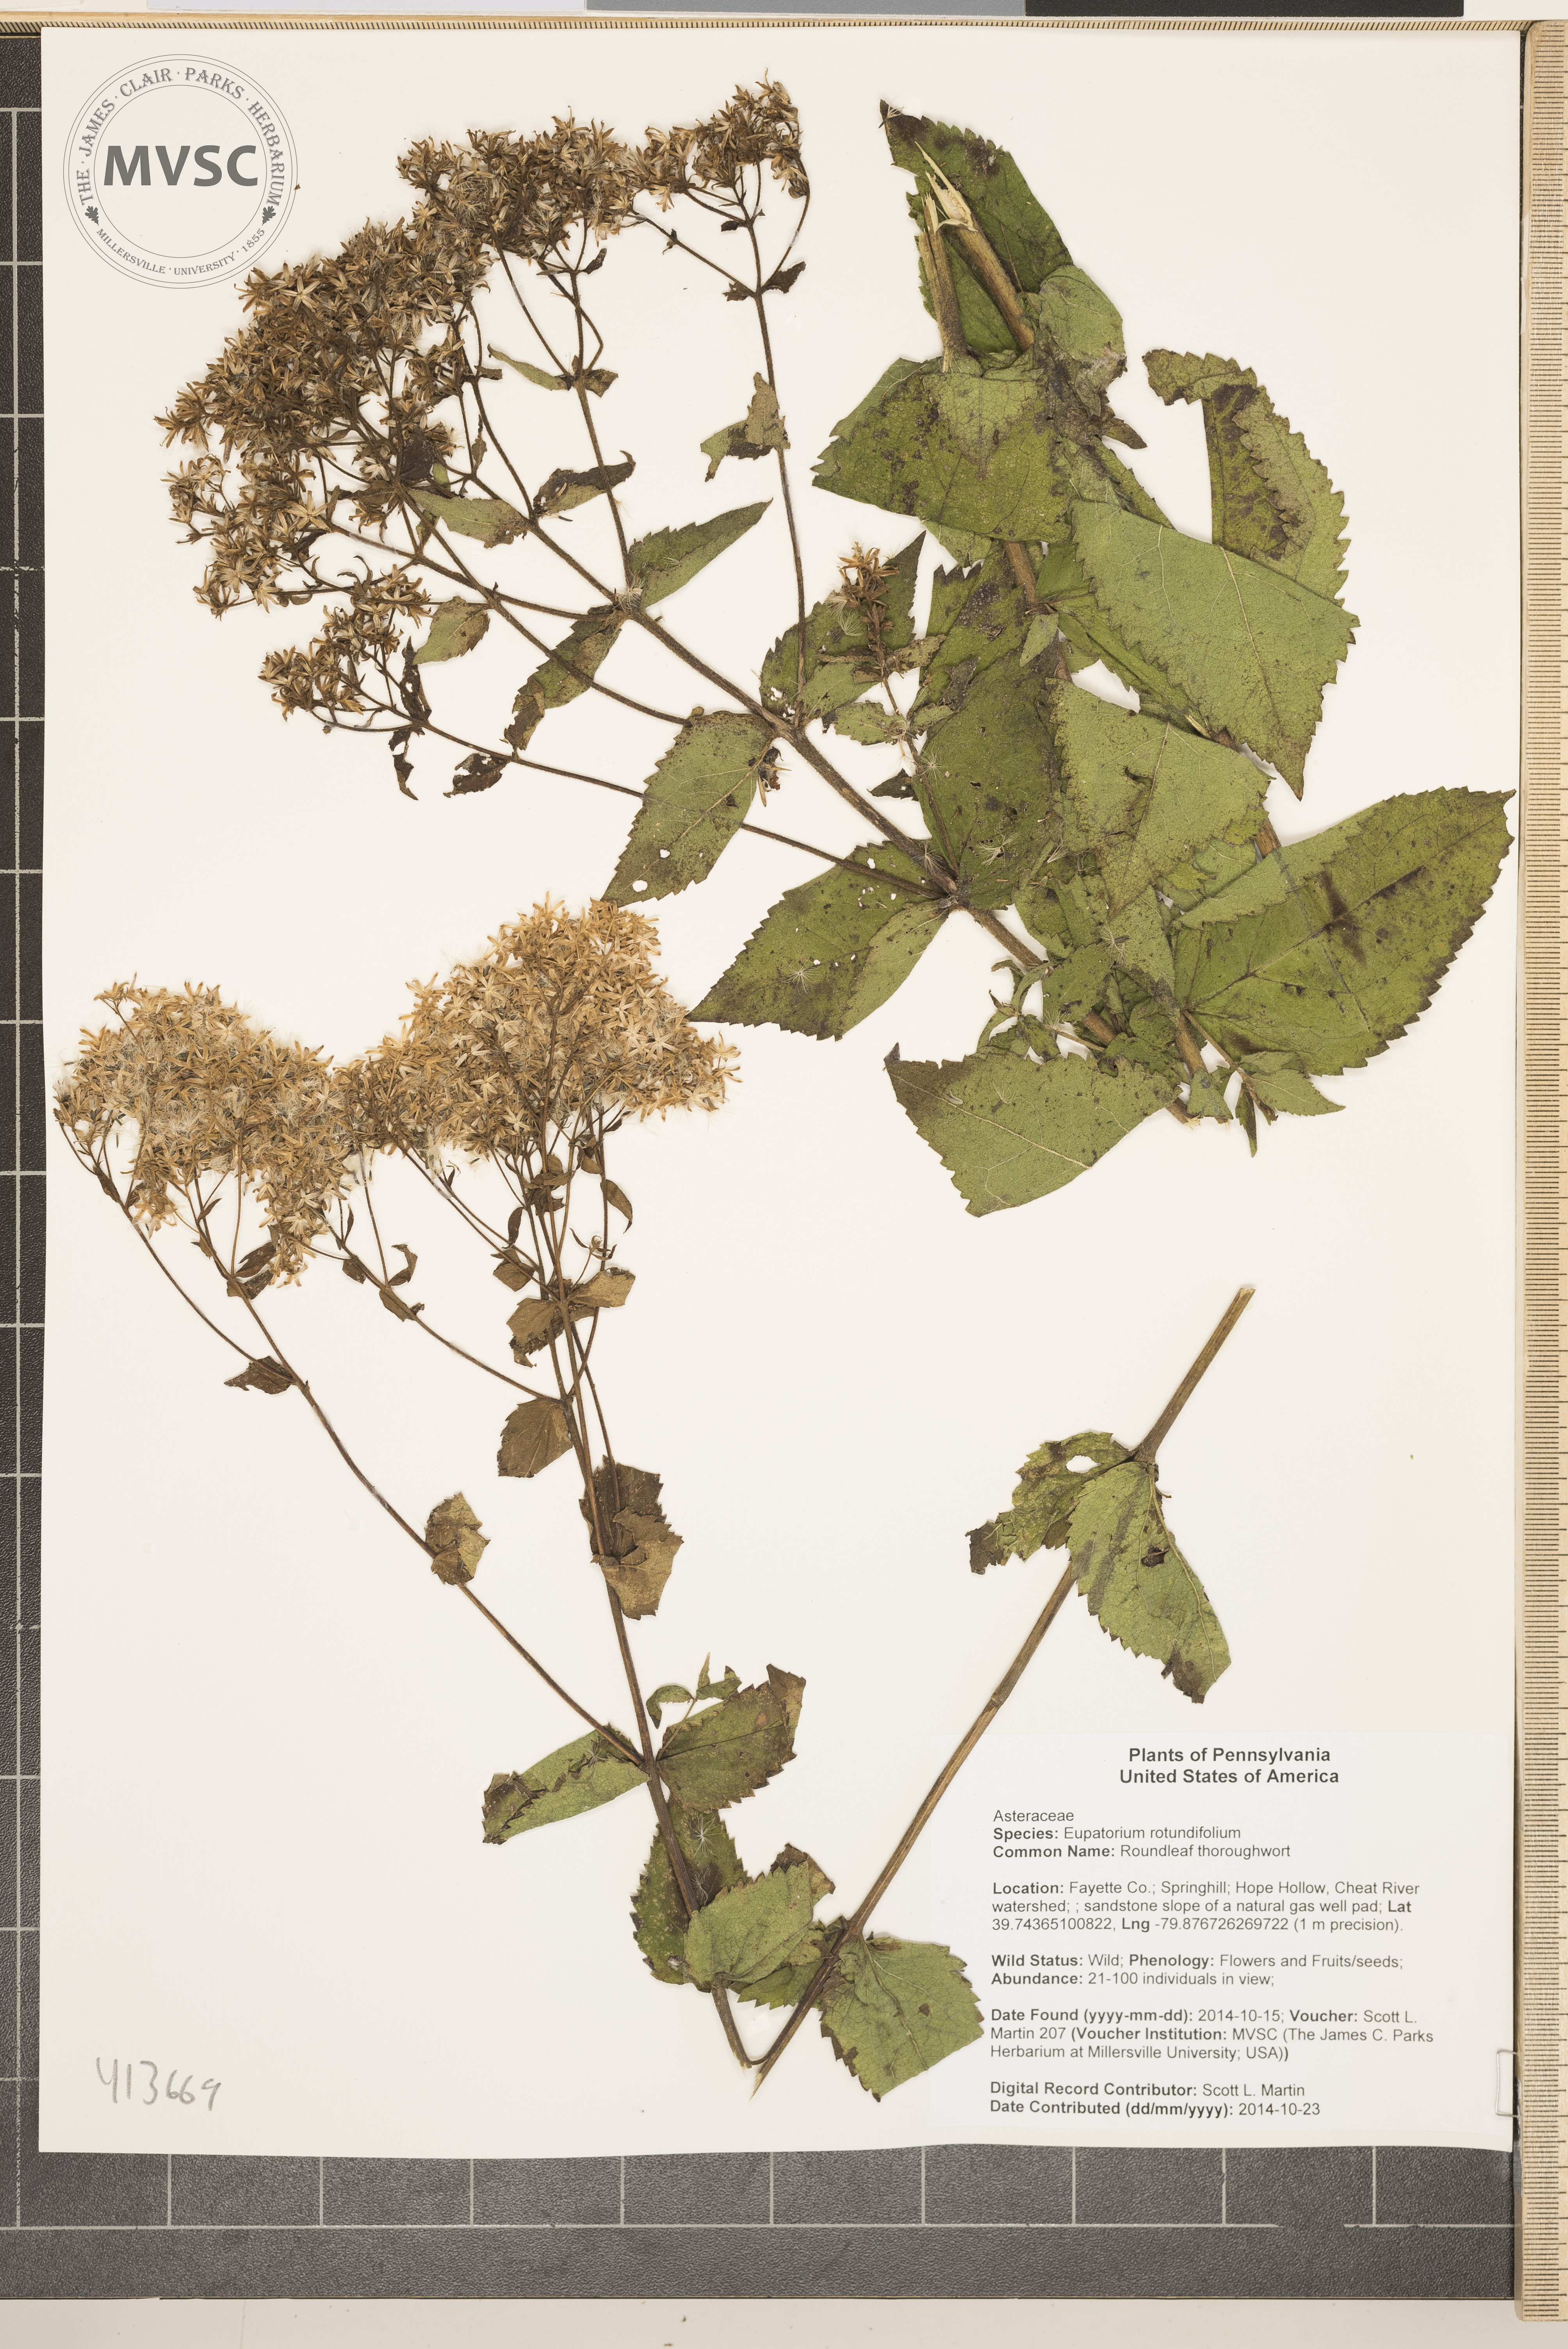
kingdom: Plantae
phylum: Tracheophyta
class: Magnoliopsida
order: Asterales
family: Asteraceae
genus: Eupatorium
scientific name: Eupatorium rotundifolium
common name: Roundleaf thoroughwort
